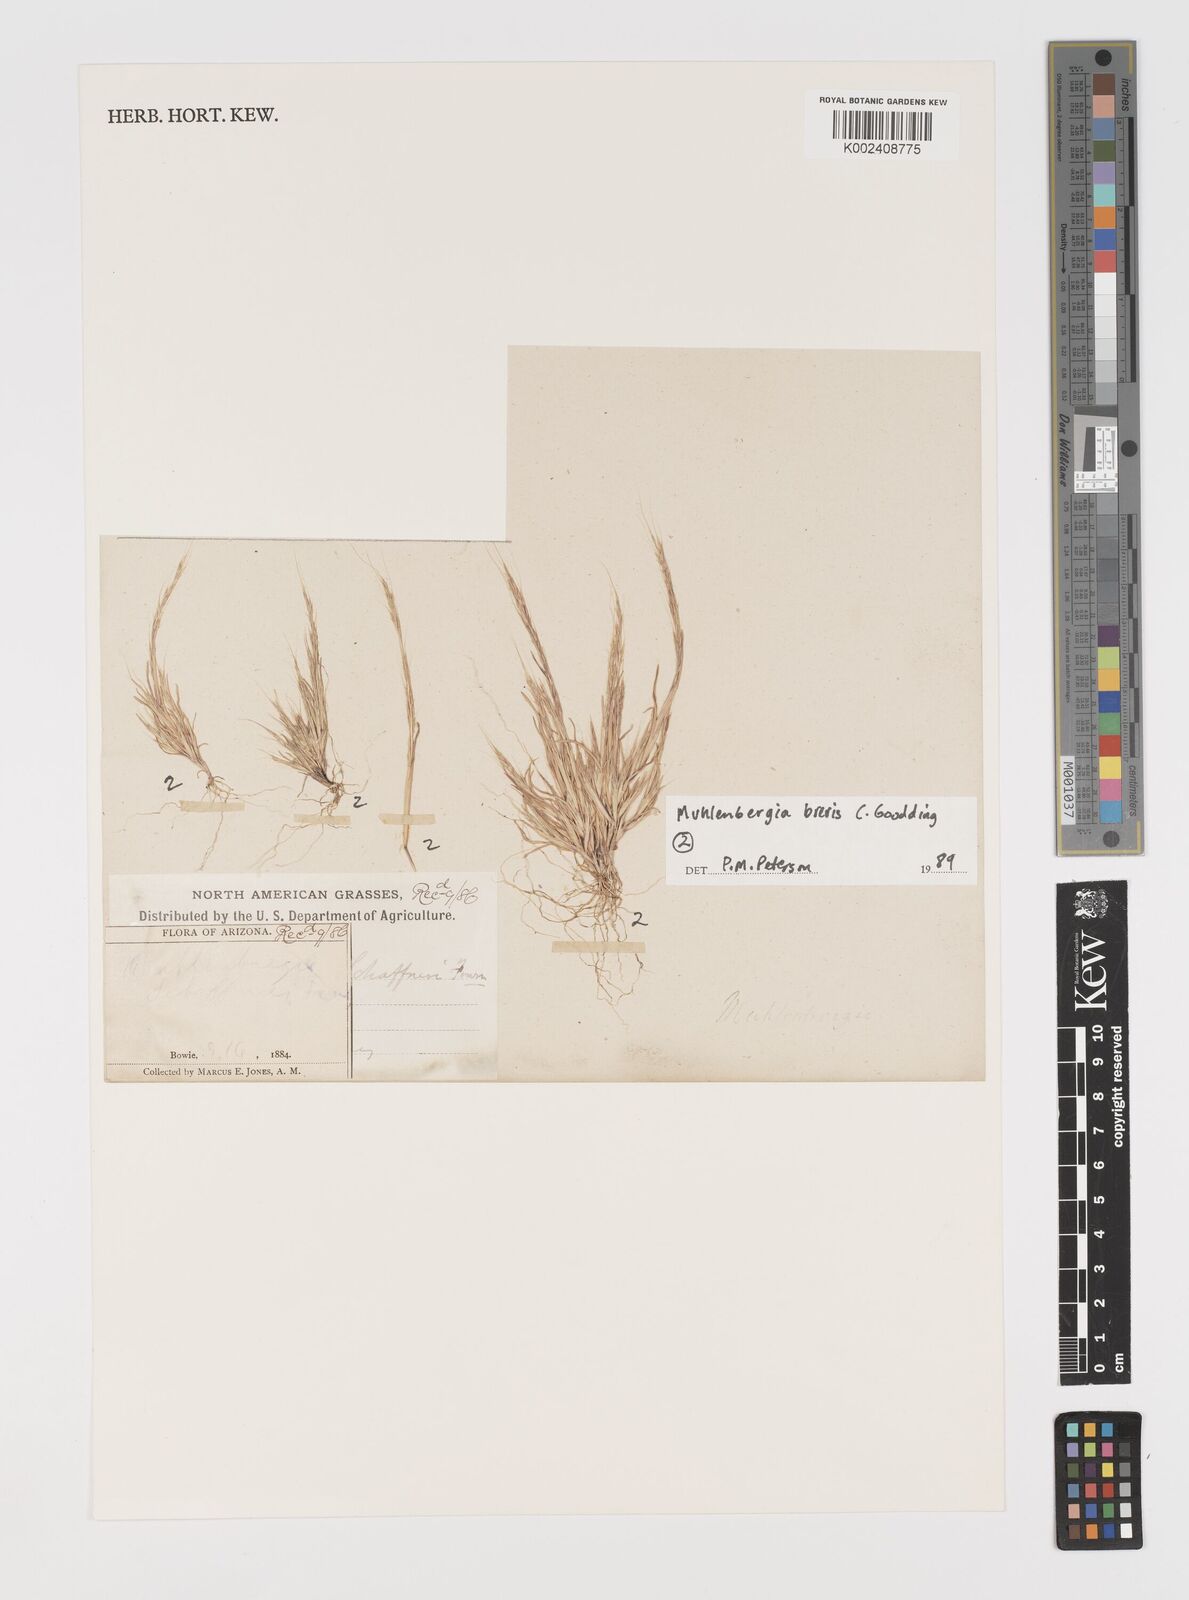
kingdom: Plantae
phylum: Tracheophyta
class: Liliopsida
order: Poales
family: Poaceae
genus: Leptochloa
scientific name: Leptochloa mucronata
